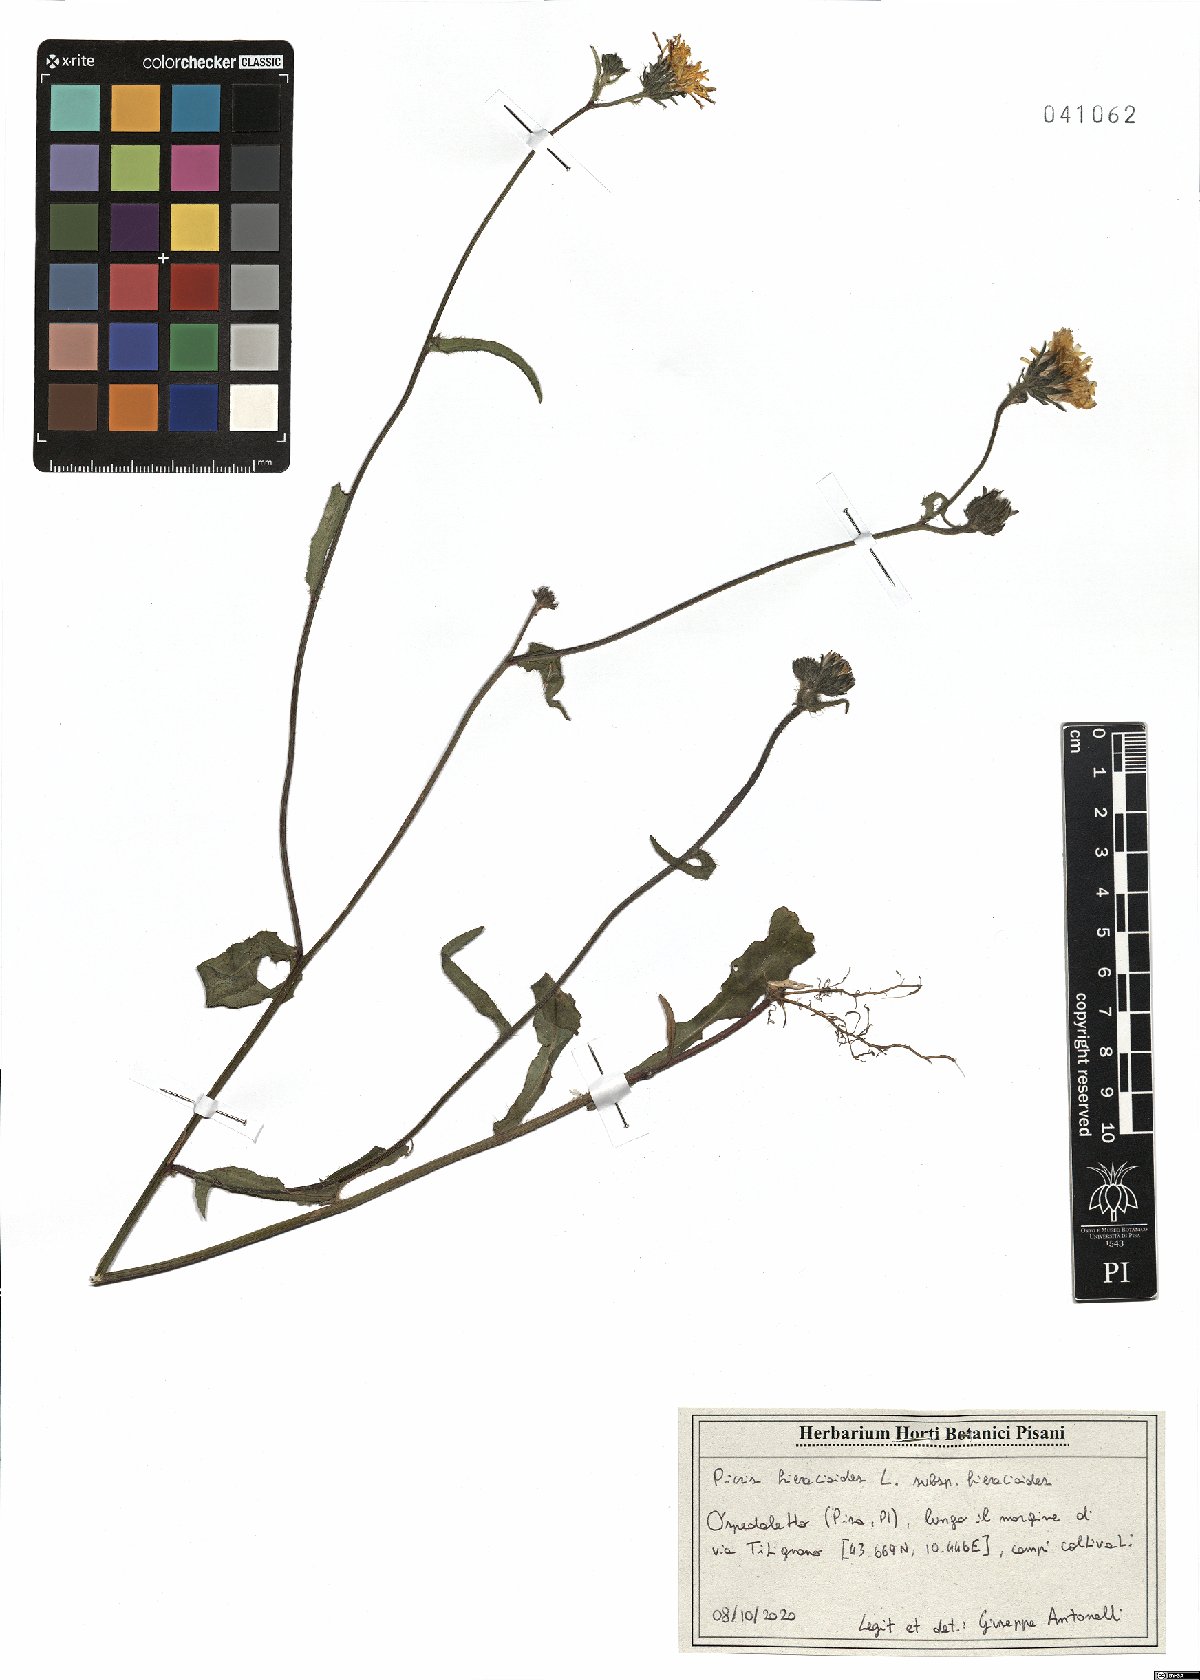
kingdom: Plantae
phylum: Tracheophyta
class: Magnoliopsida
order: Asterales
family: Asteraceae
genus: Picris
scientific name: Picris hieracioides
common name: Hawkweed oxtongue
